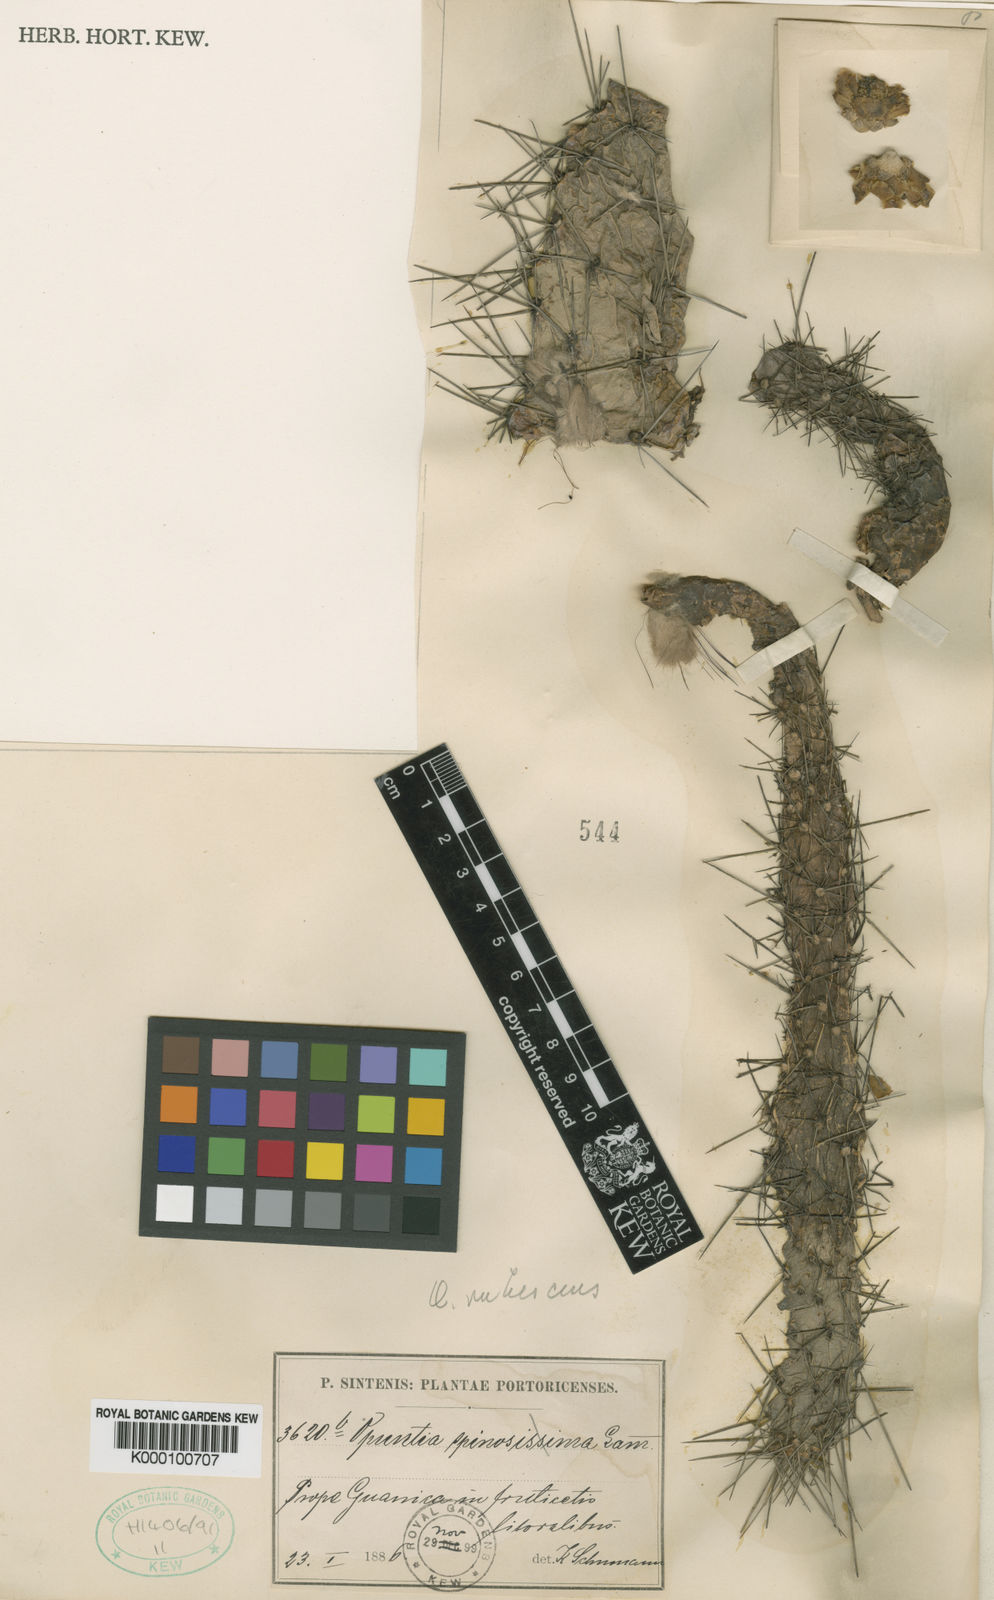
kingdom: Plantae
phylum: Tracheophyta
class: Magnoliopsida
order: Caryophyllales
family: Cactaceae
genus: Consolea
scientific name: Consolea rubescens
